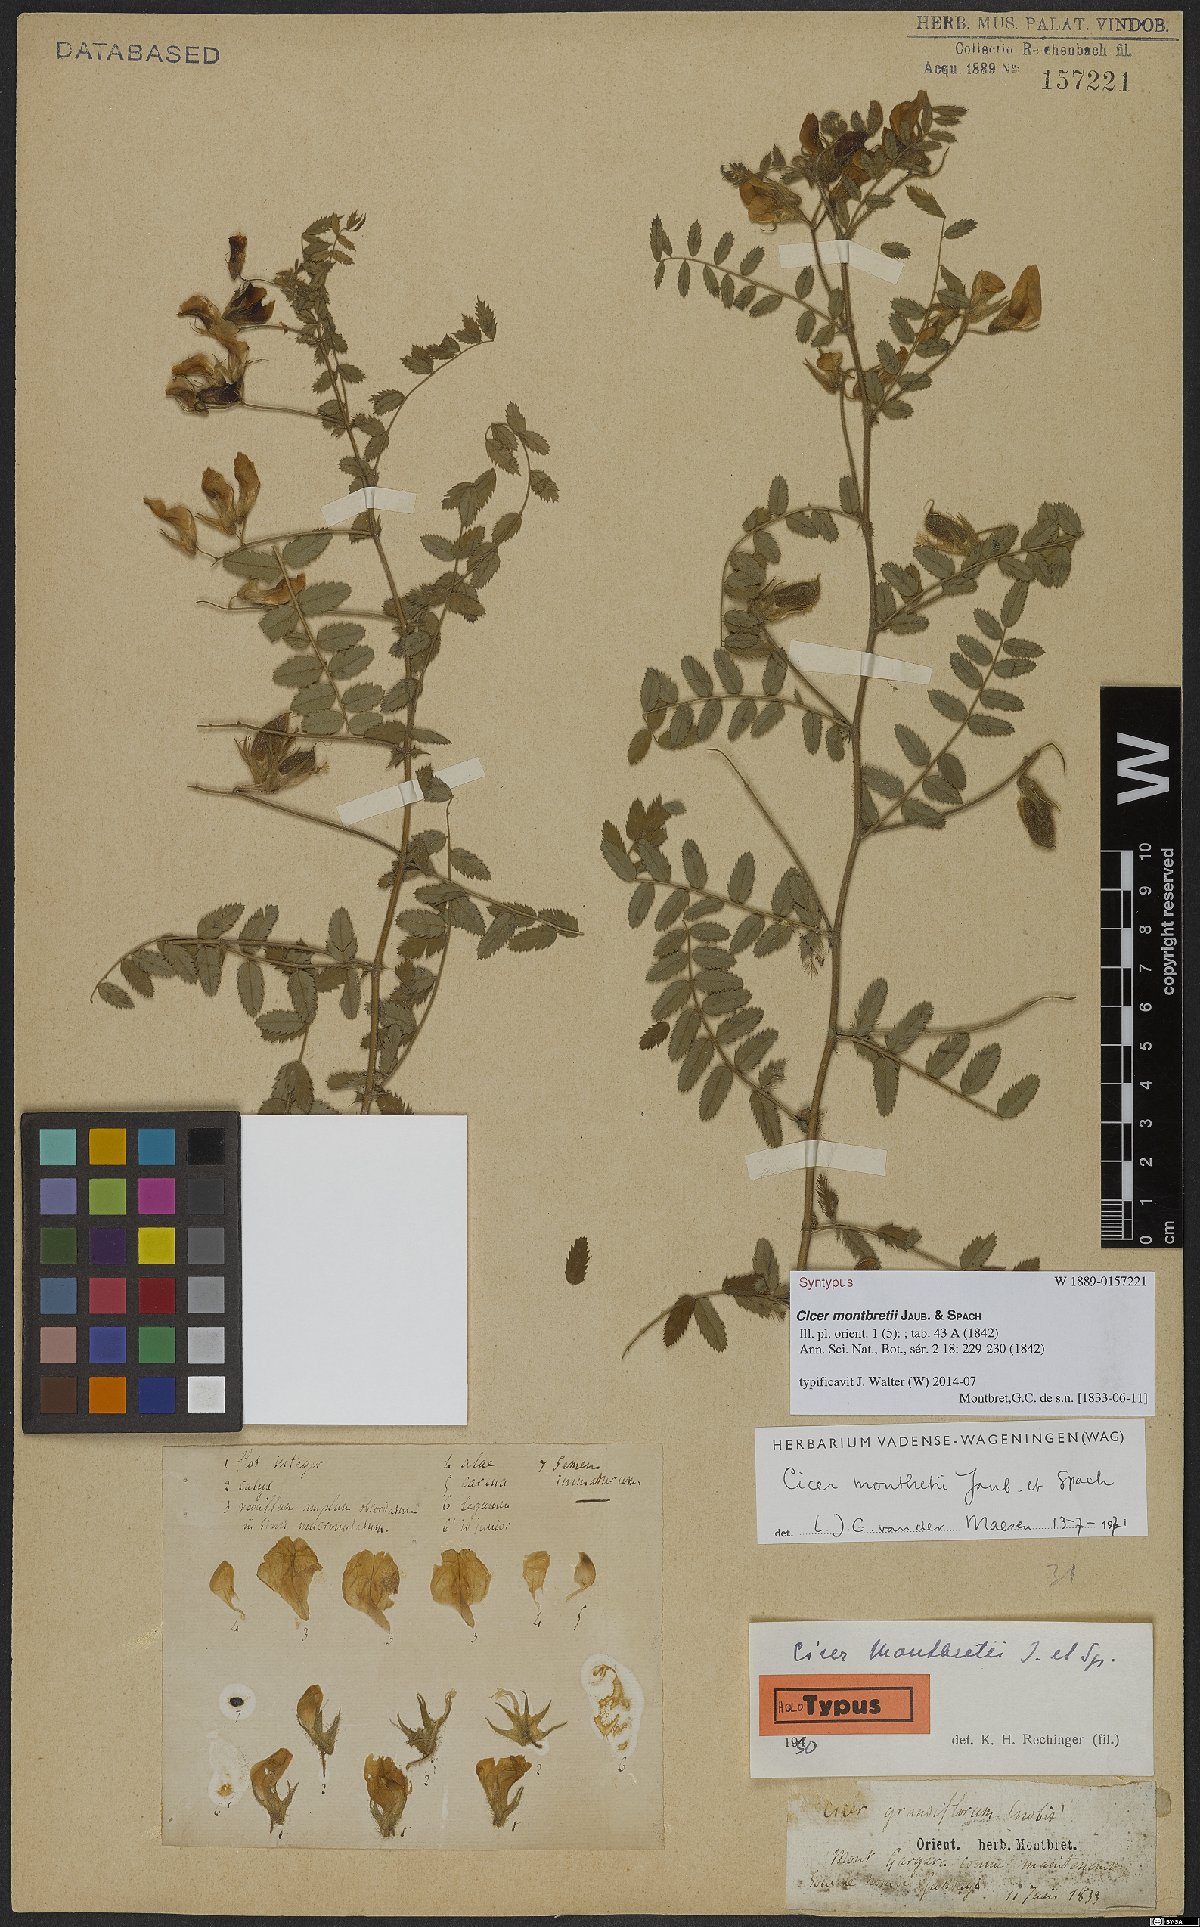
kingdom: Plantae
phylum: Tracheophyta
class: Magnoliopsida
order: Fabales
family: Fabaceae
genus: Cicer
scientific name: Cicer montbretii
